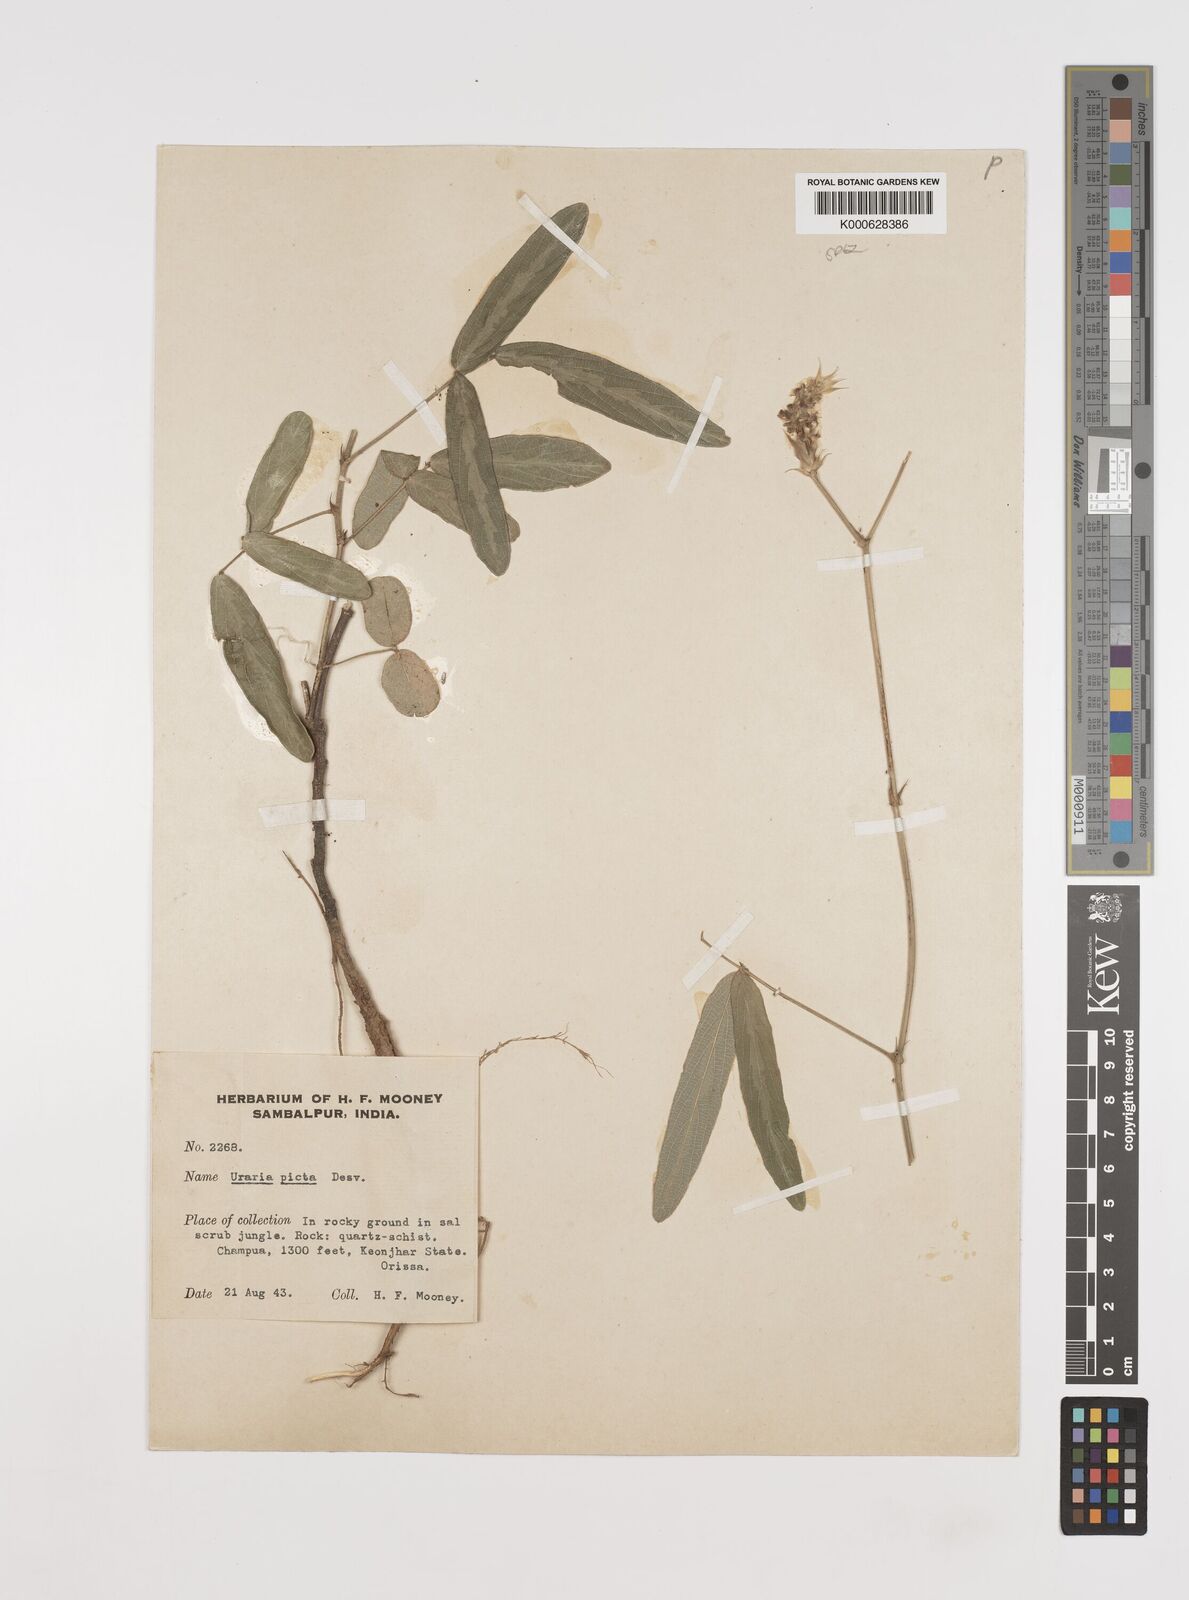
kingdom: Plantae
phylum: Tracheophyta
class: Magnoliopsida
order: Fabales
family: Fabaceae
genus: Uraria
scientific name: Uraria picta
